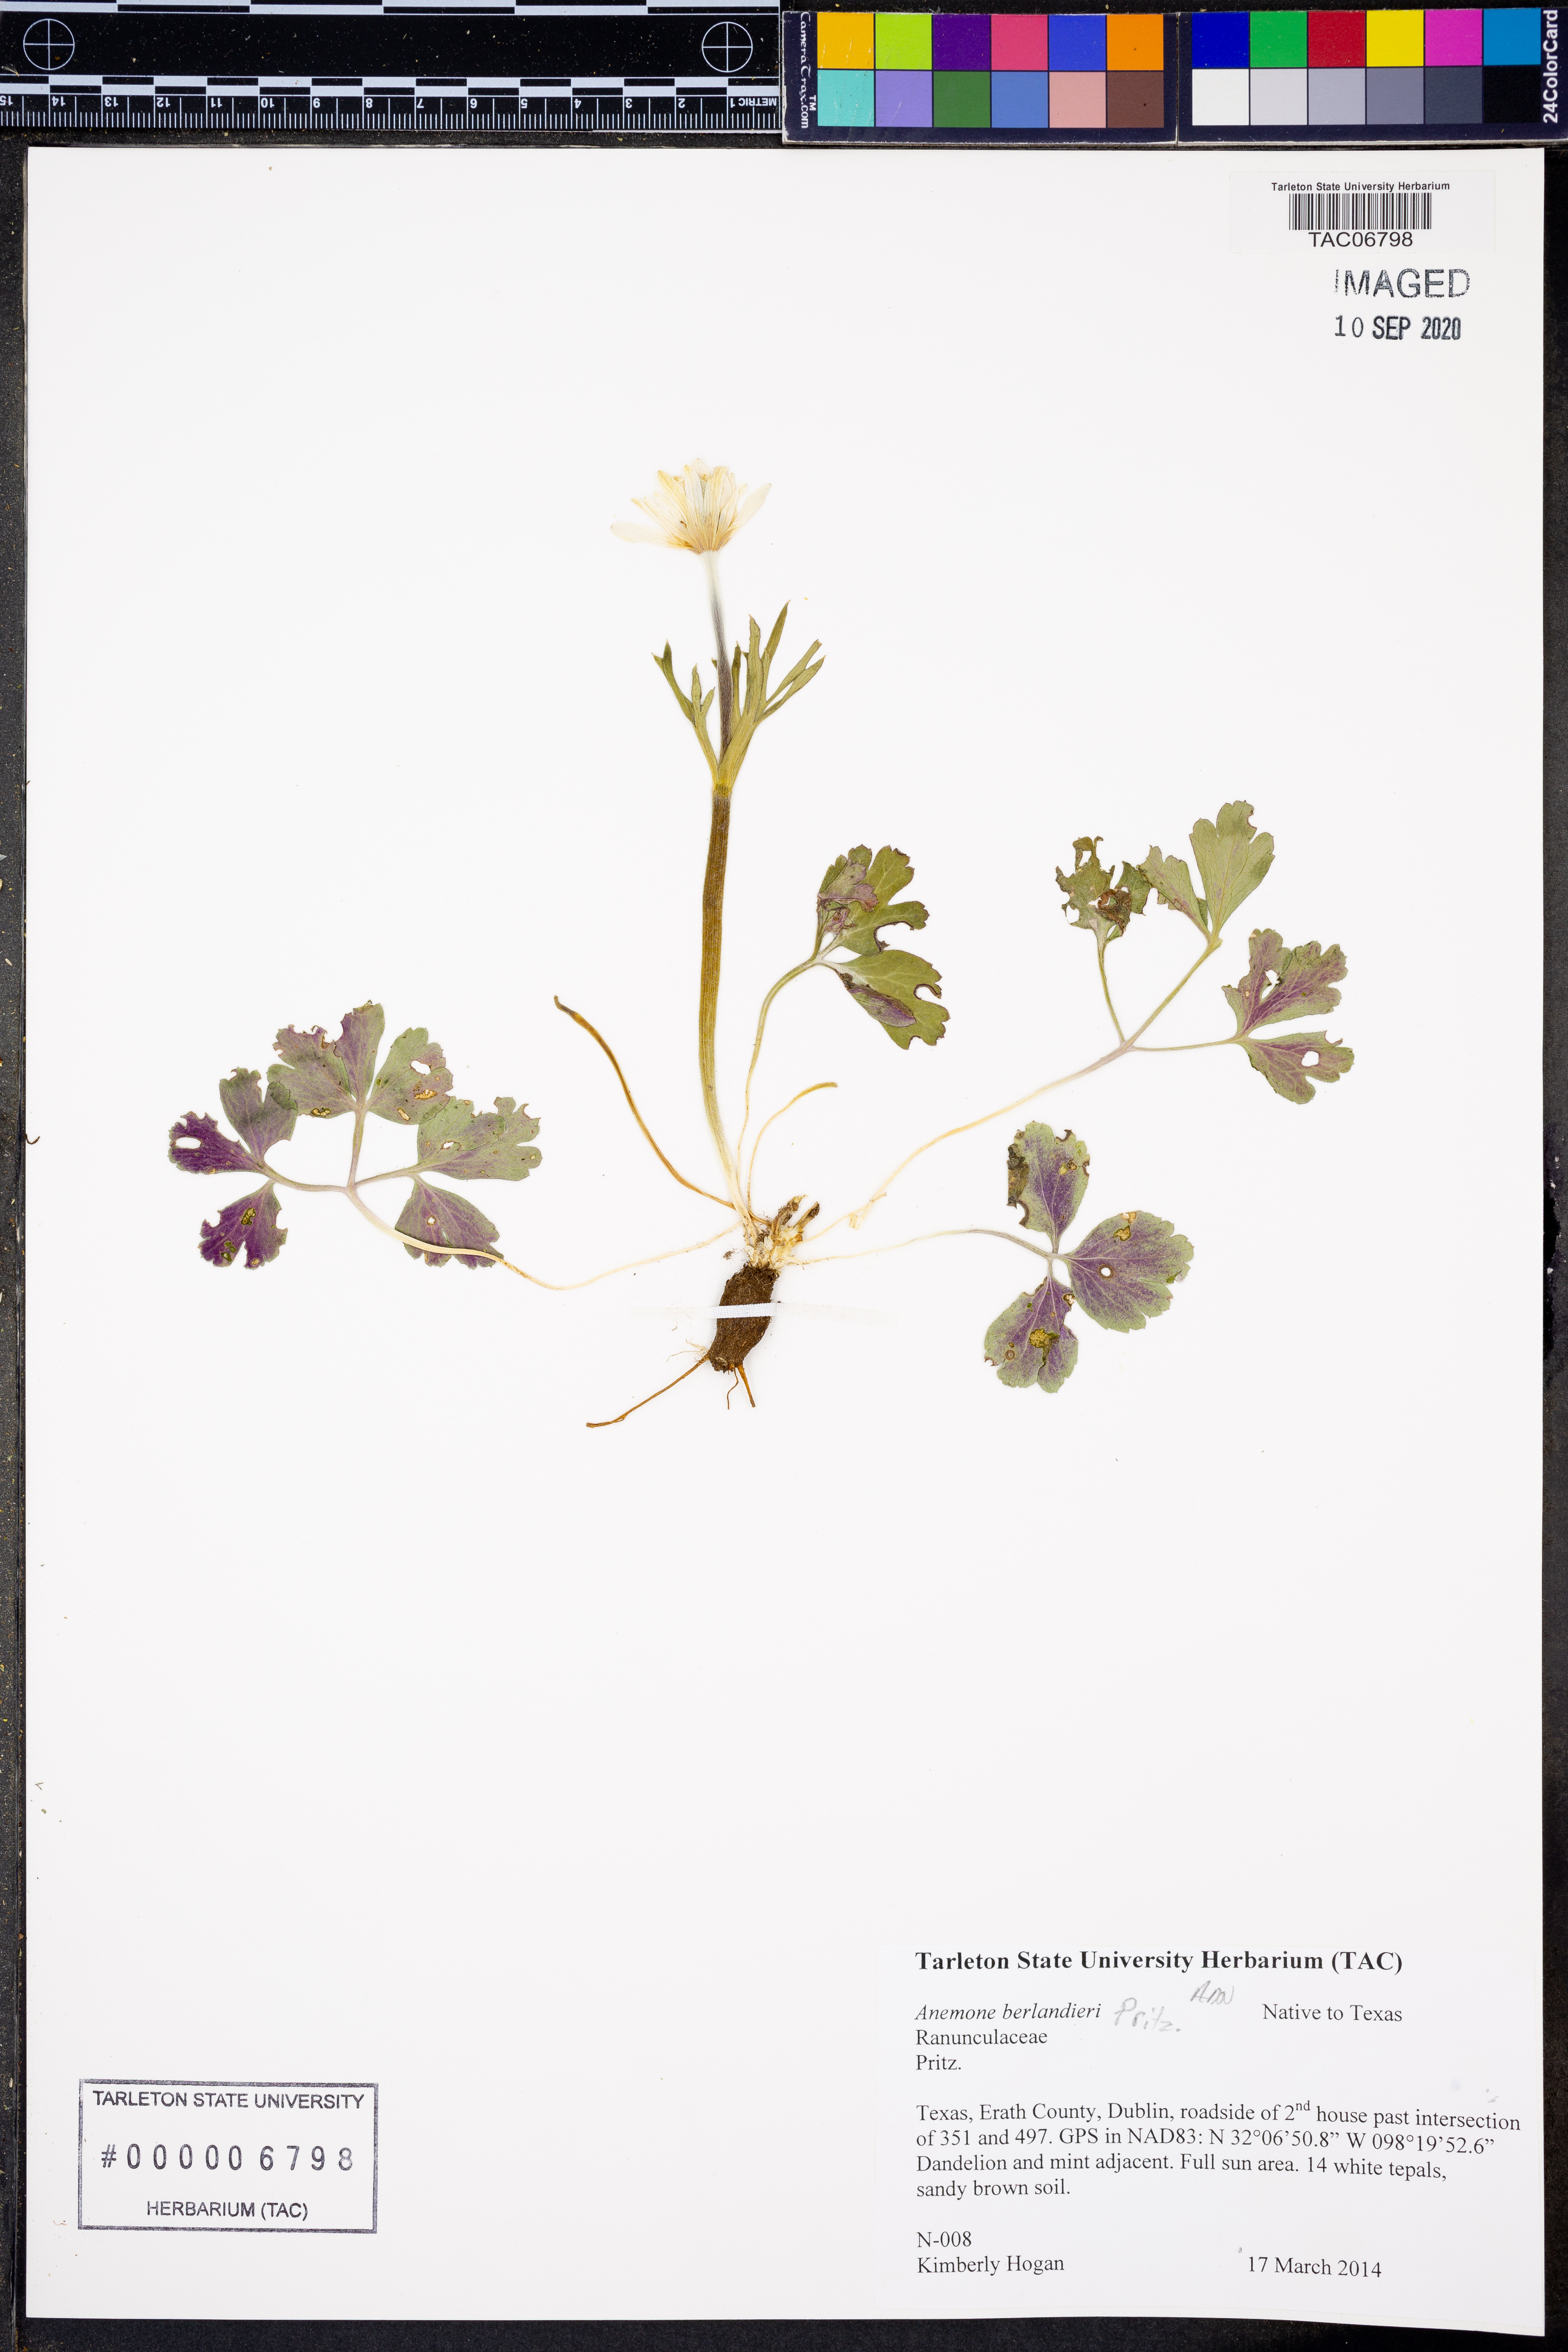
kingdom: Plantae
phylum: Tracheophyta
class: Magnoliopsida
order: Ranunculales
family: Ranunculaceae
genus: Anemone
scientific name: Anemone berlandieri
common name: Ten-petal anemone
